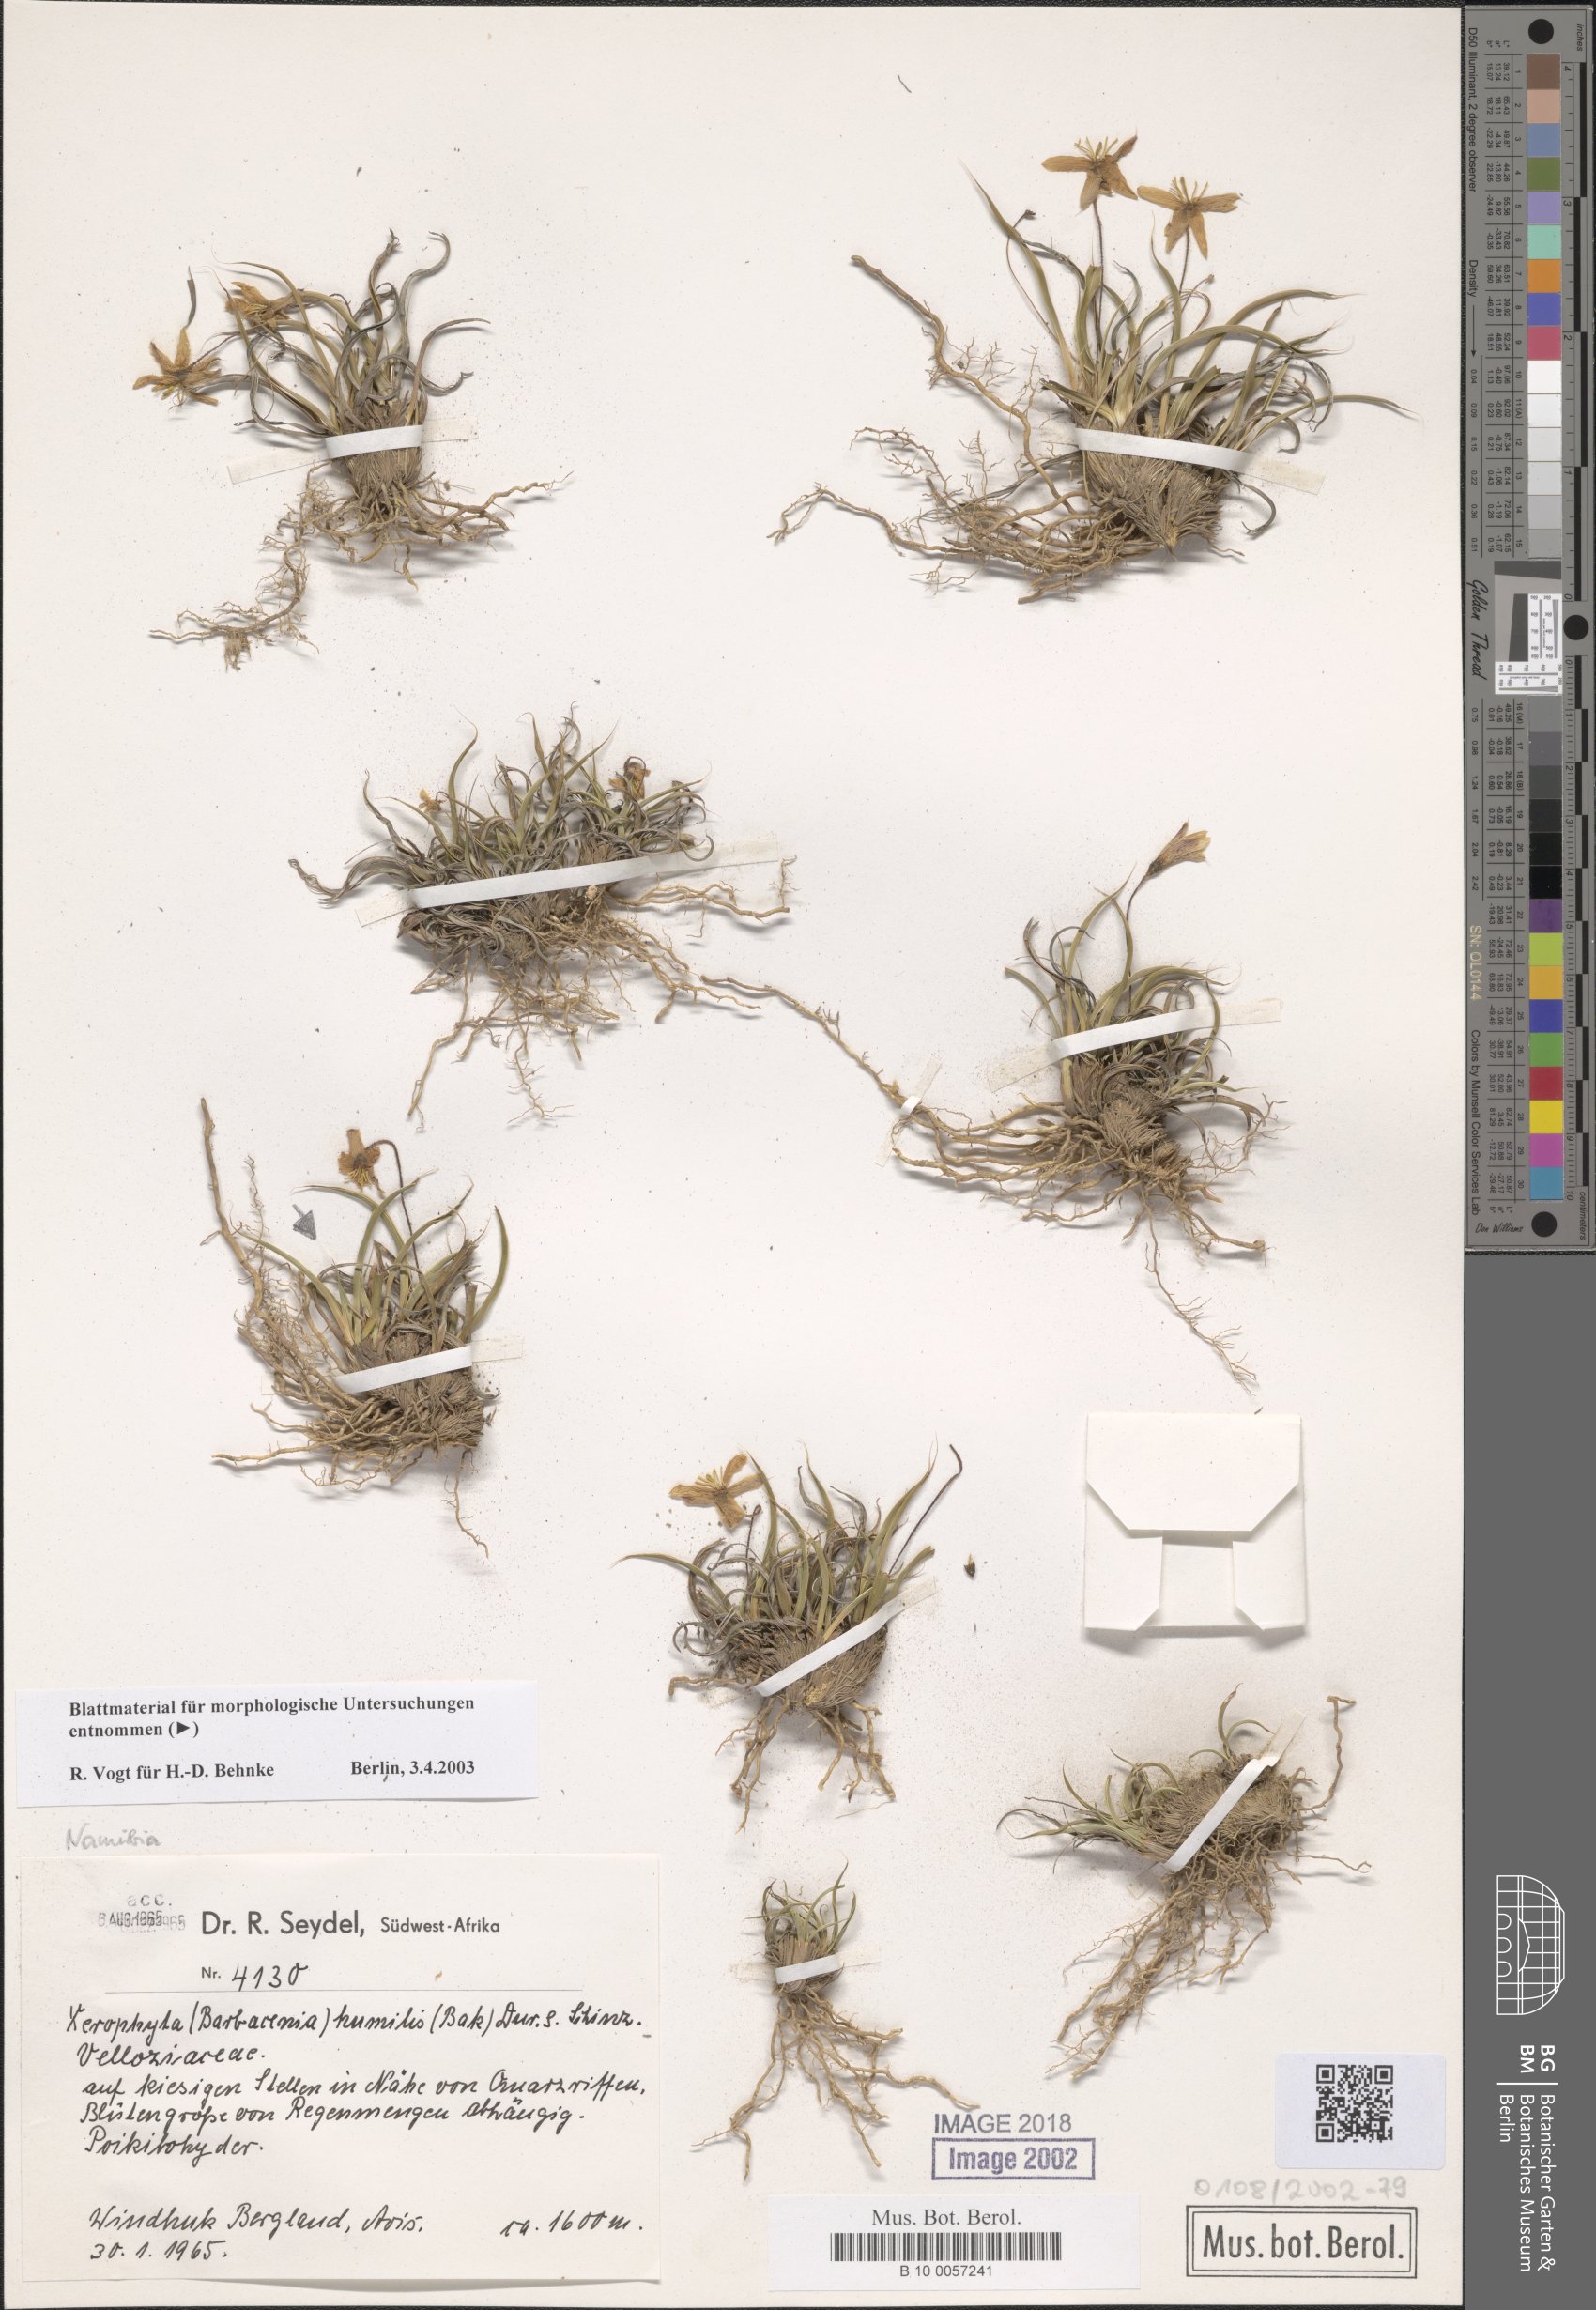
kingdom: Plantae
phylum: Tracheophyta
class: Liliopsida
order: Pandanales
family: Velloziaceae
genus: Xerophyta
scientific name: Xerophyta humilis
